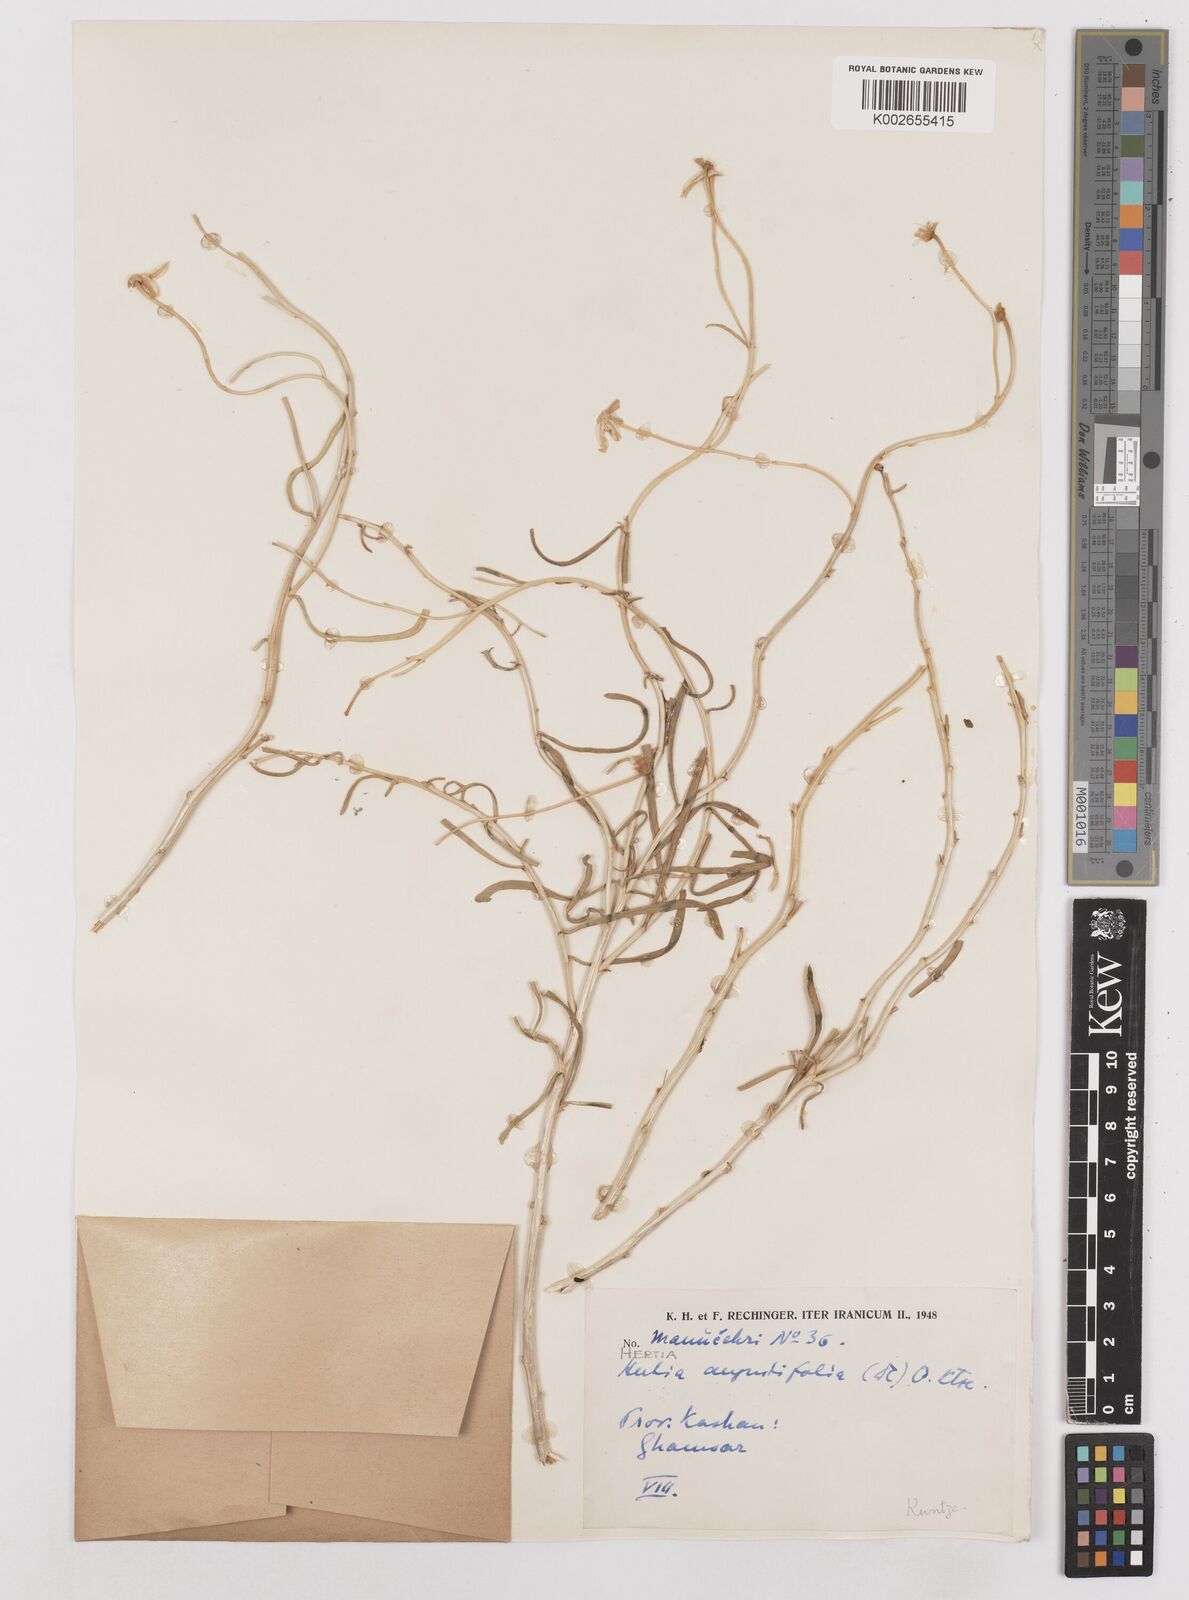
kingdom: Plantae
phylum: Tracheophyta
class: Magnoliopsida
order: Asterales
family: Asteraceae
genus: Hertia
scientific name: Hertia angustifolia
